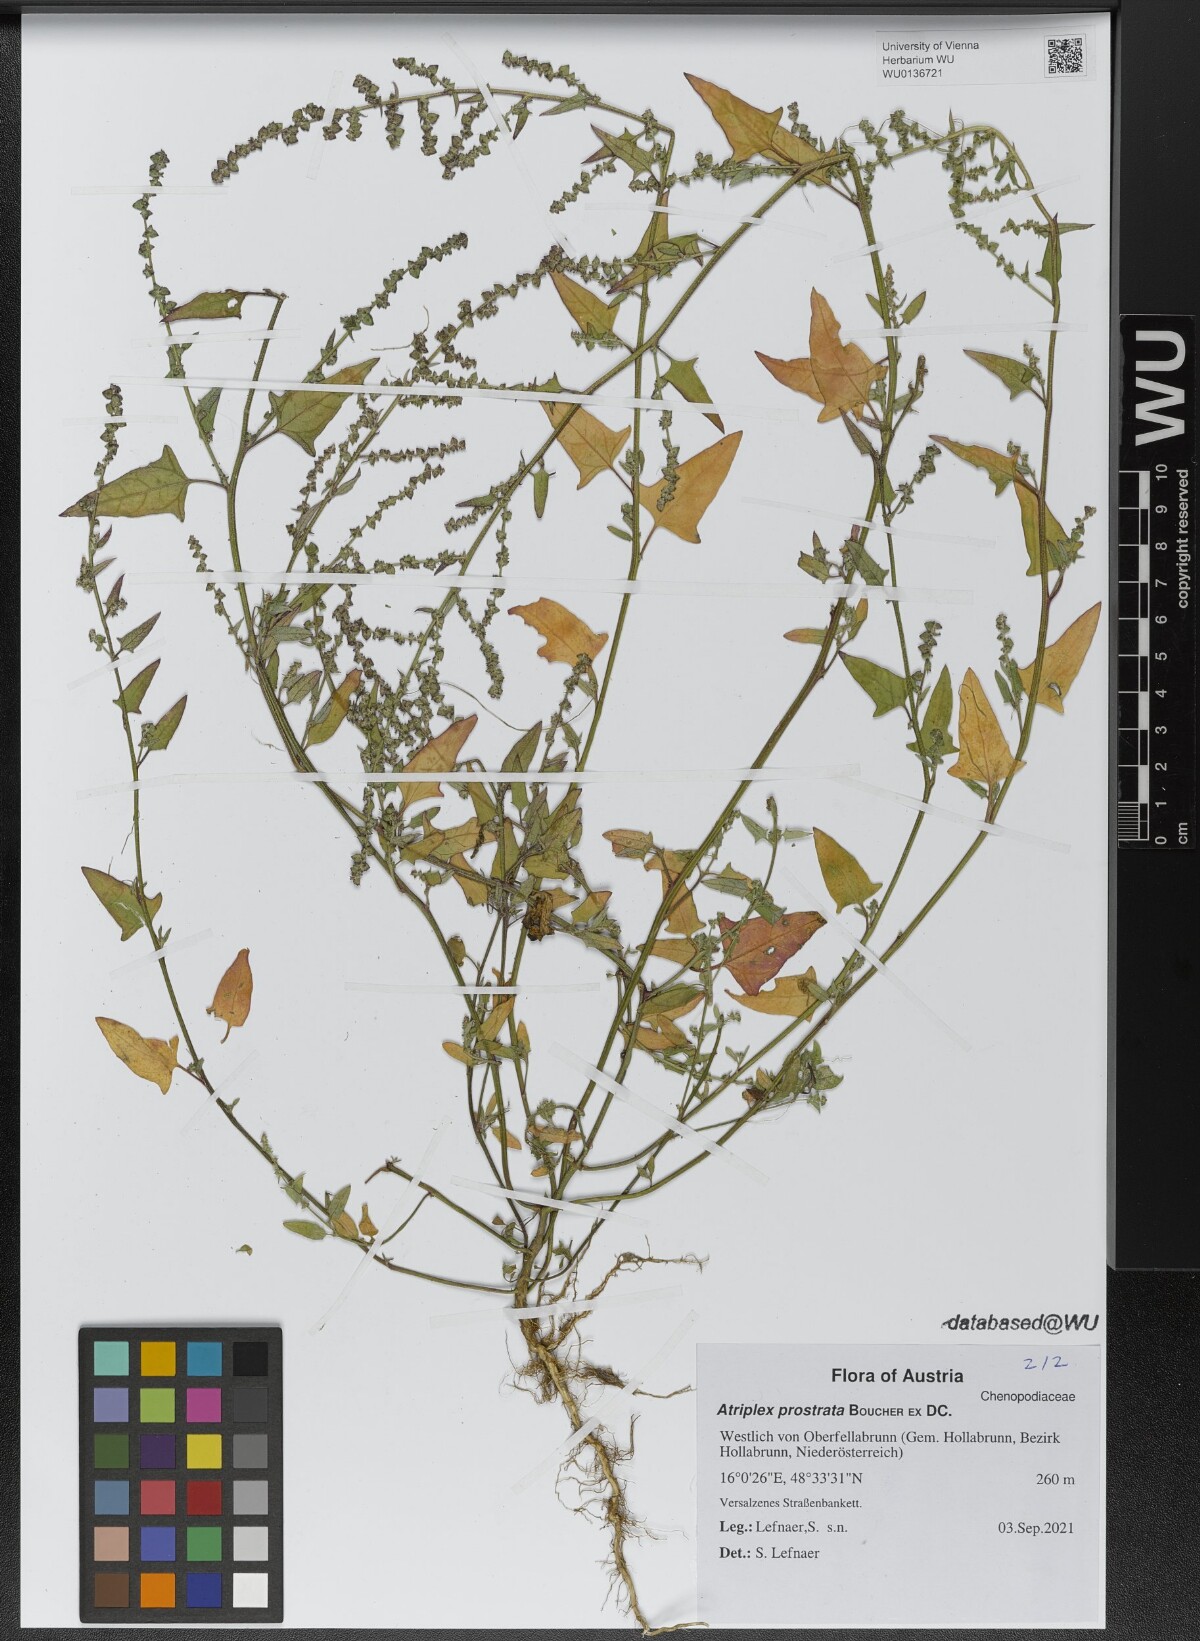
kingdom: Plantae
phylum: Tracheophyta
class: Magnoliopsida
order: Caryophyllales
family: Amaranthaceae
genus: Atriplex
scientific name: Atriplex prostrata
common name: Spear-leaved orache
